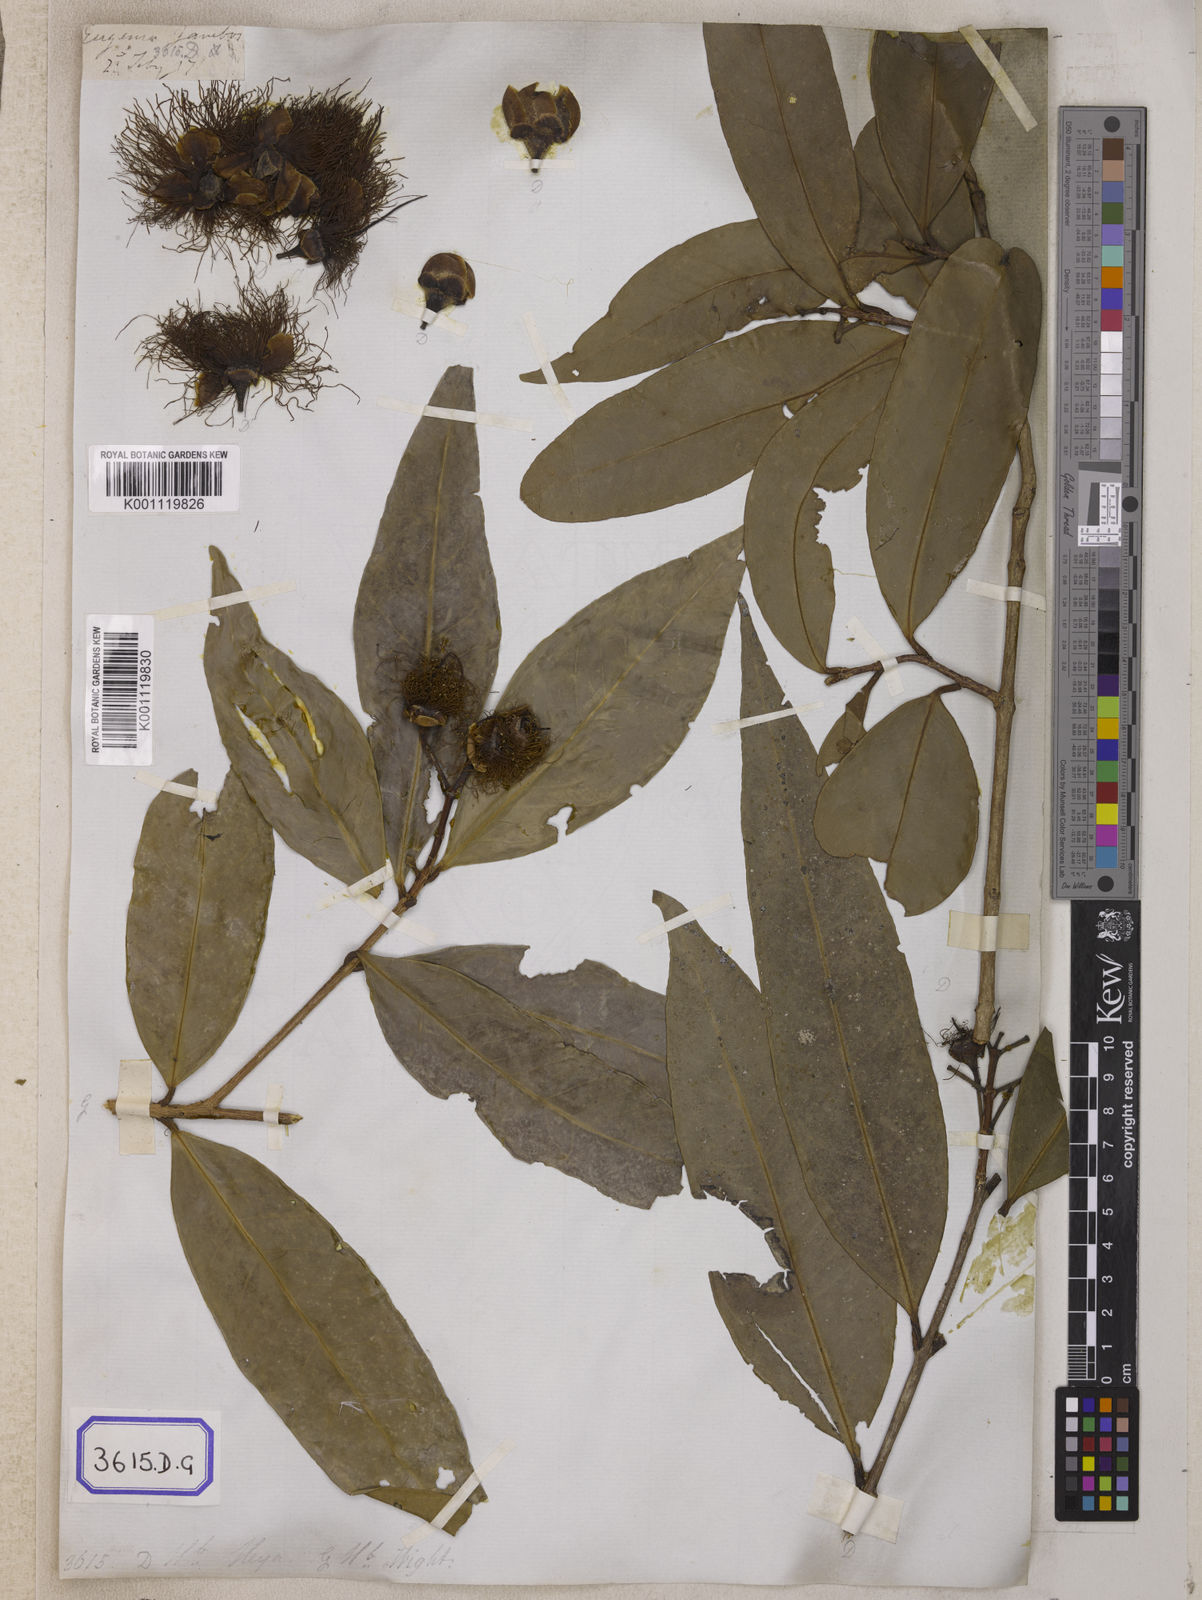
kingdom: Plantae
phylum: Tracheophyta
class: Magnoliopsida
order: Myrtales
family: Myrtaceae
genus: Syzygium
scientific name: Syzygium jambos
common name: Malabar plum
